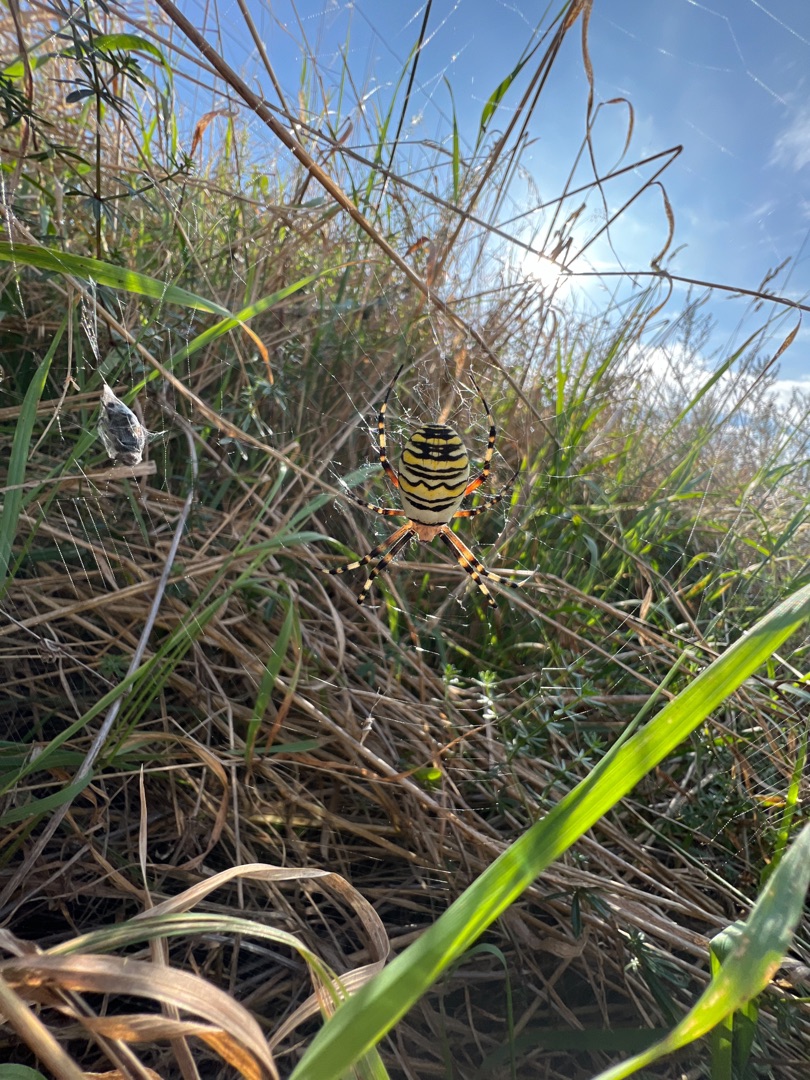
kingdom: Animalia
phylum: Arthropoda
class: Arachnida
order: Araneae
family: Araneidae
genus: Argiope
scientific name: Argiope bruennichi
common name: Hvepseedderkop
